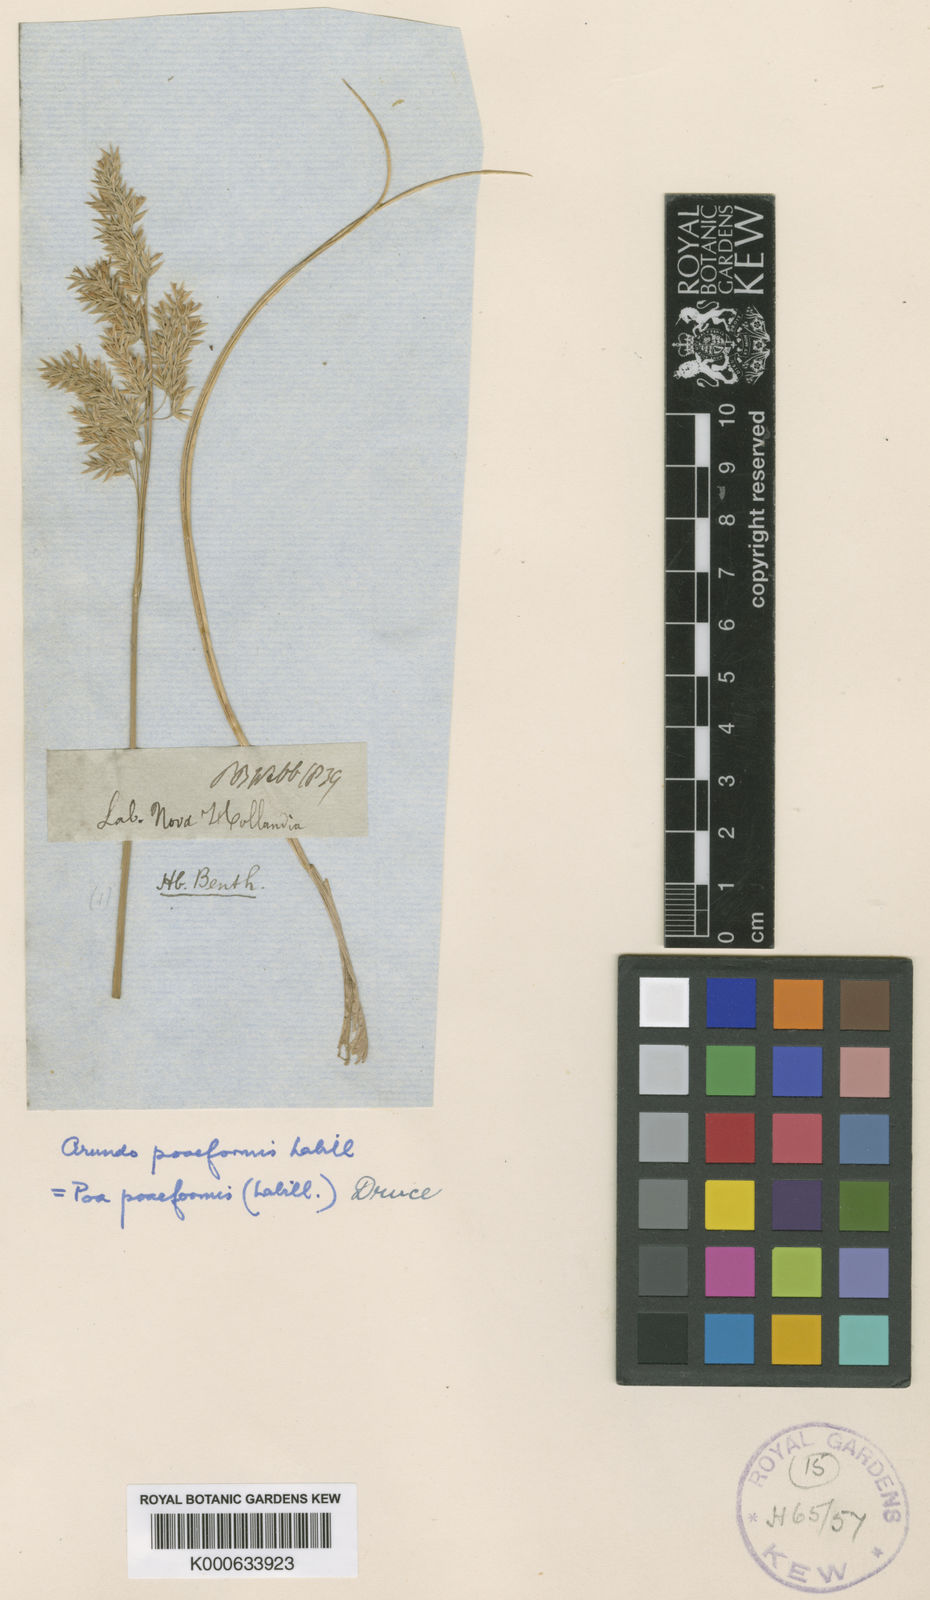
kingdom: Plantae
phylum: Tracheophyta
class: Liliopsida
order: Poales
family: Poaceae
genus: Poa
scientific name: Poa poiformis
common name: Tussock poa
